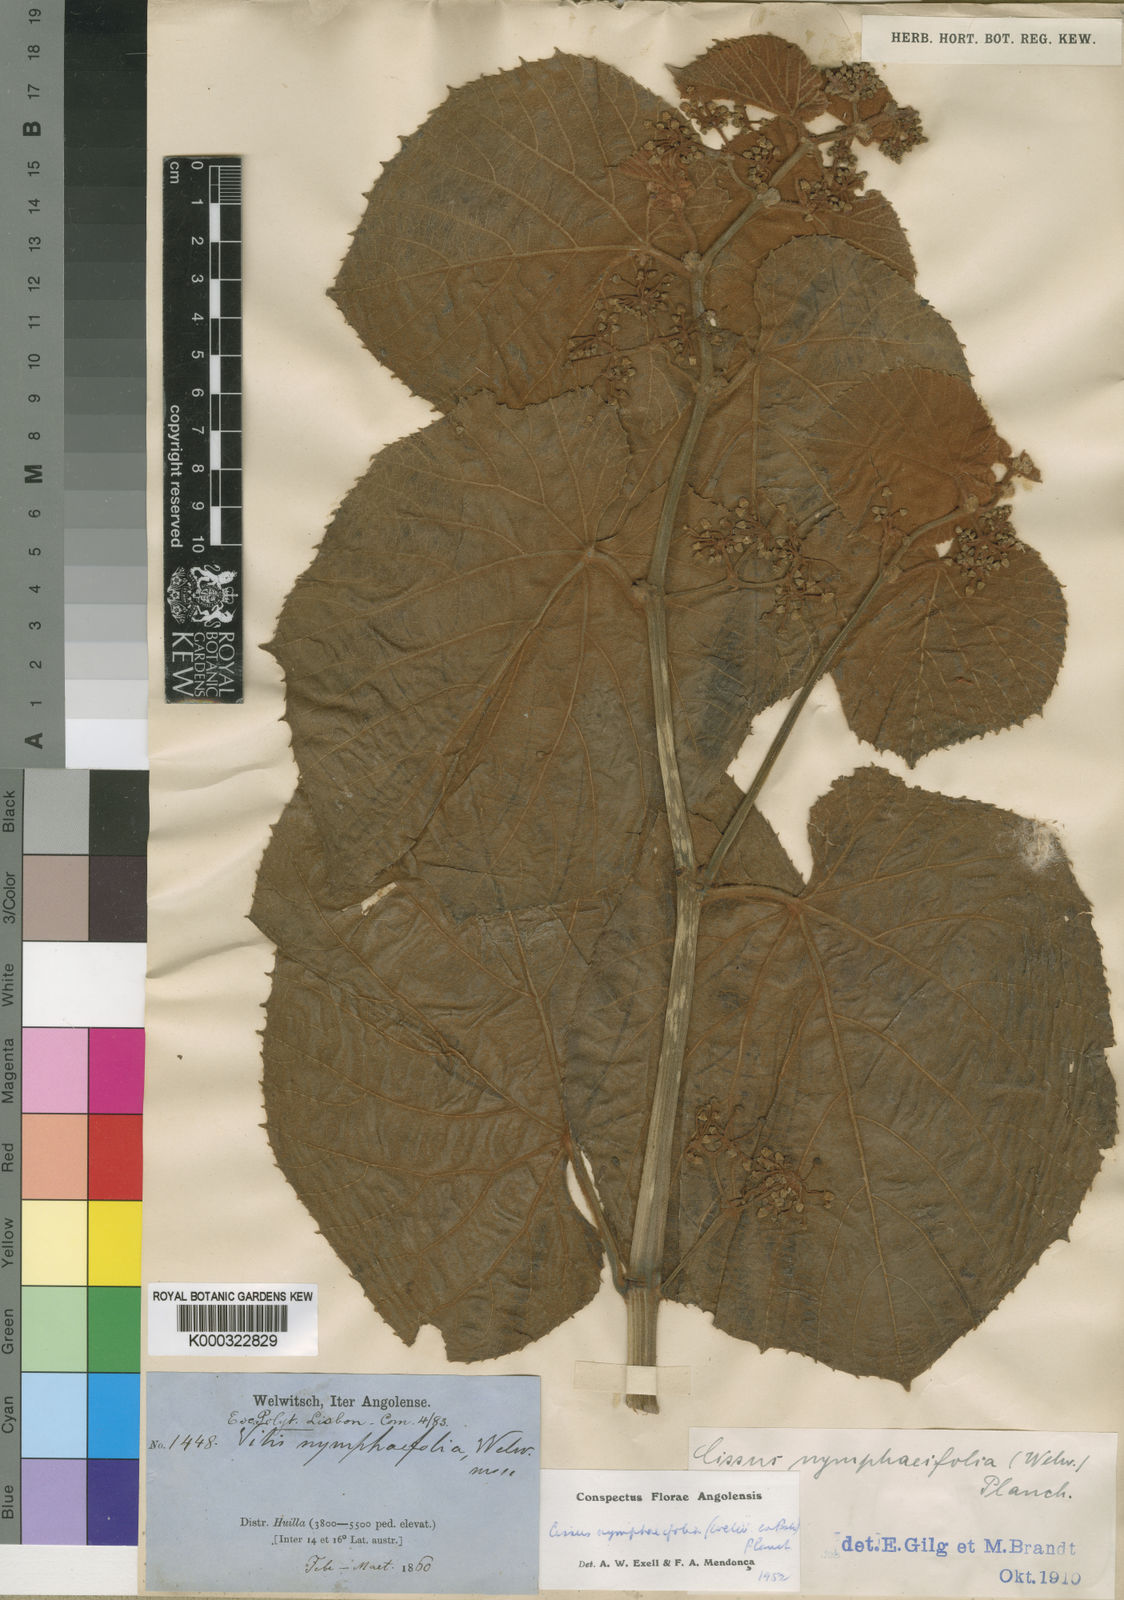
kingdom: Plantae
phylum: Tracheophyta
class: Magnoliopsida
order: Vitales
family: Vitaceae
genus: Cissus
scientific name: Cissus nymphaeifolia
